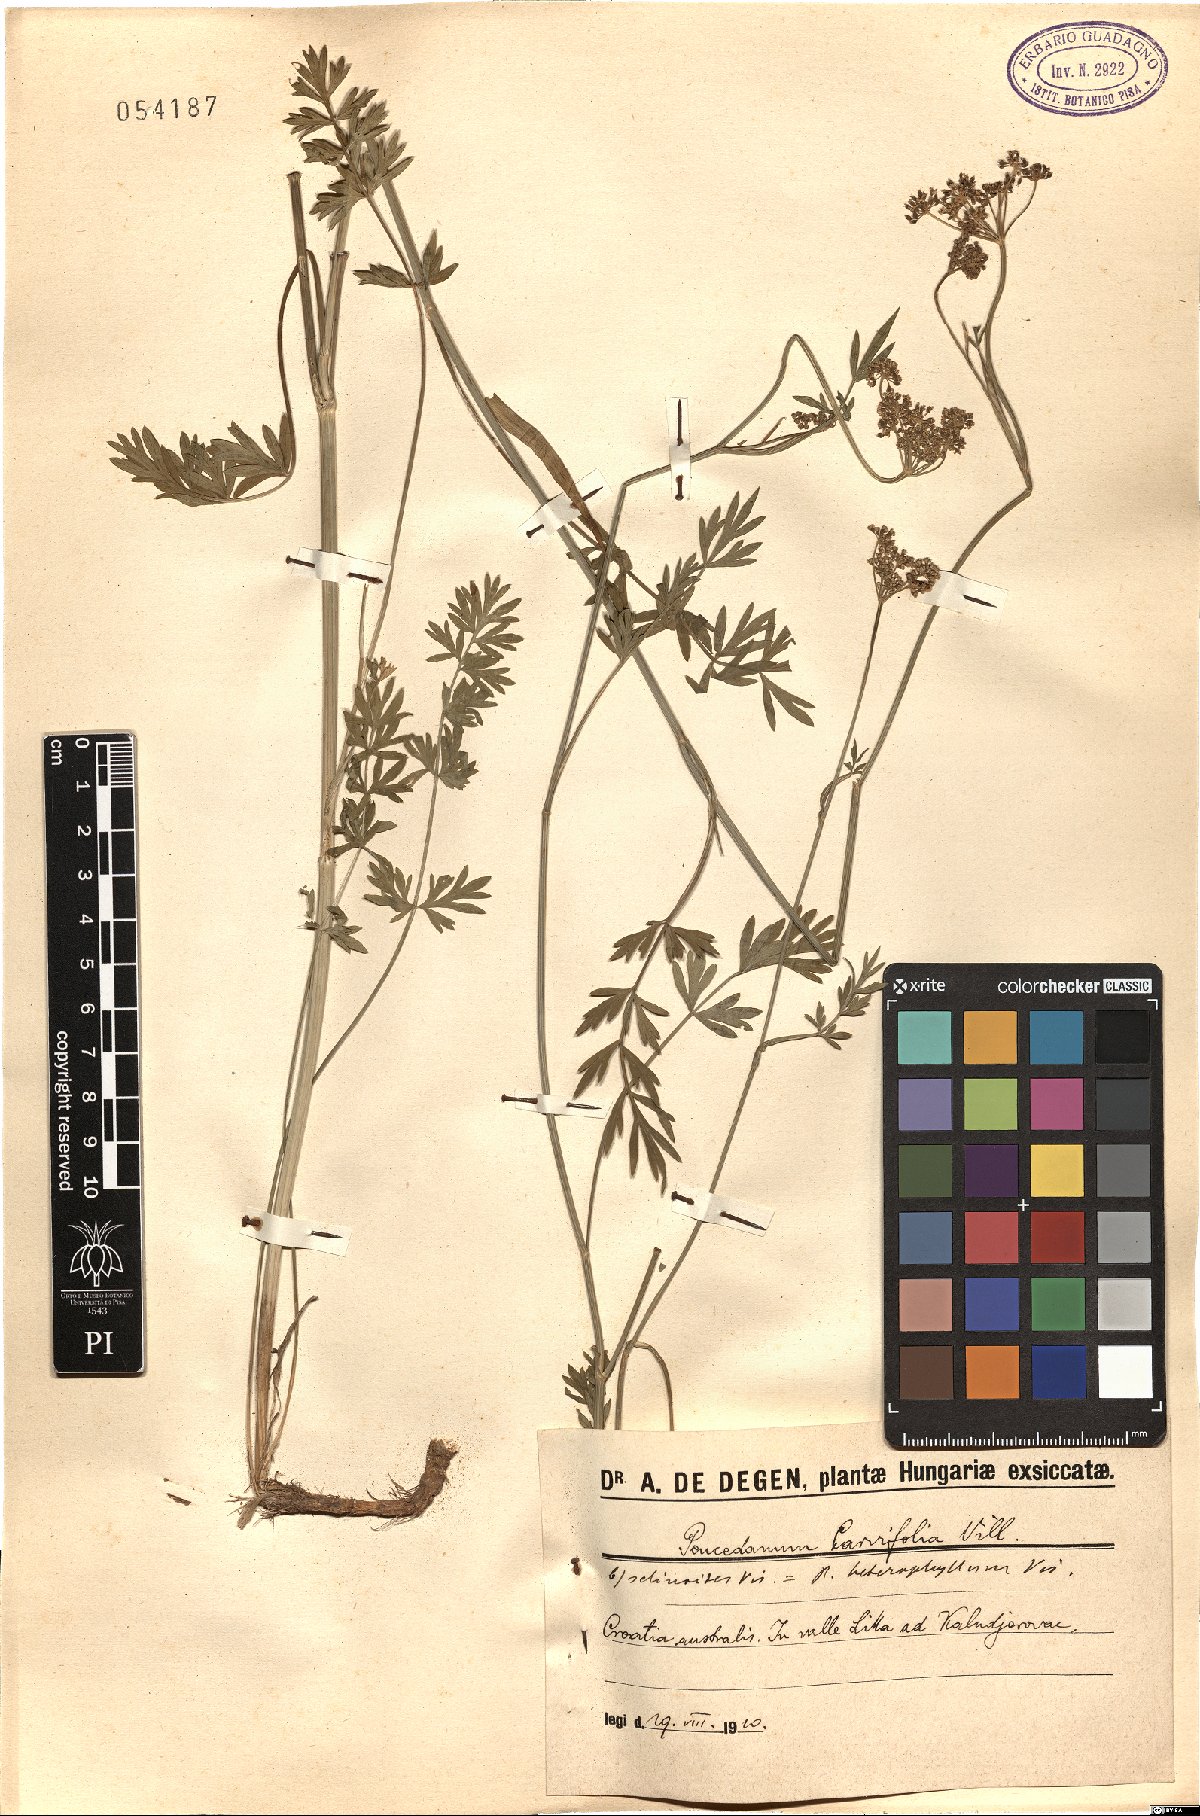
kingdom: Plantae
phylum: Tracheophyta
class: Magnoliopsida
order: Apiales
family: Apiaceae
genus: Dichoropetalum
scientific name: Dichoropetalum carvifolia
